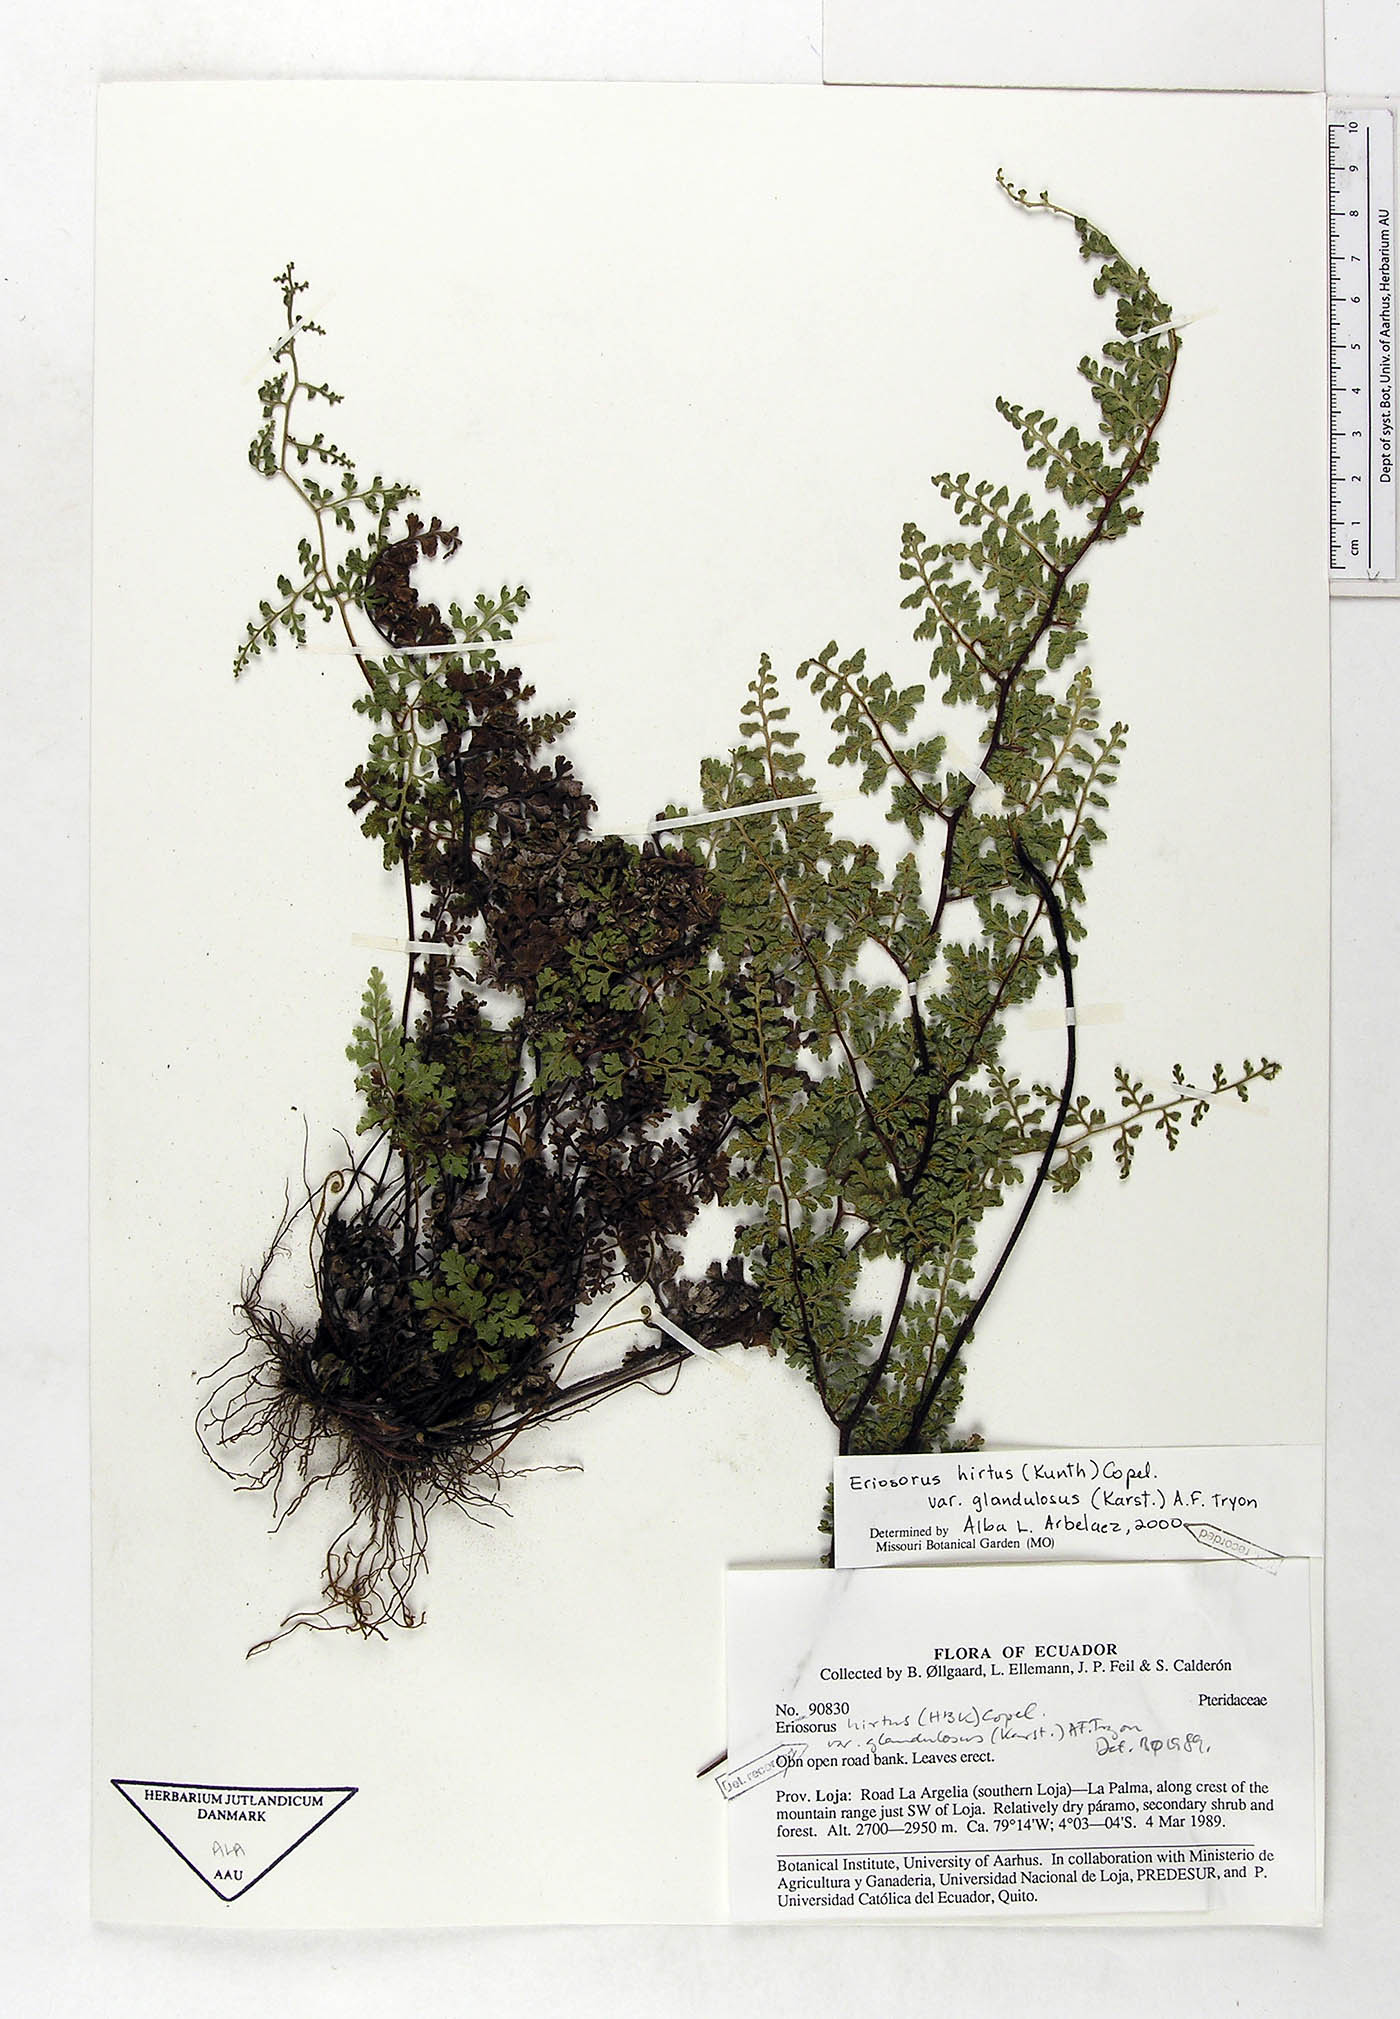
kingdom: Plantae
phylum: Tracheophyta
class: Polypodiopsida
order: Polypodiales
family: Pteridaceae
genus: Jamesonia
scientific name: Jamesonia hirta
